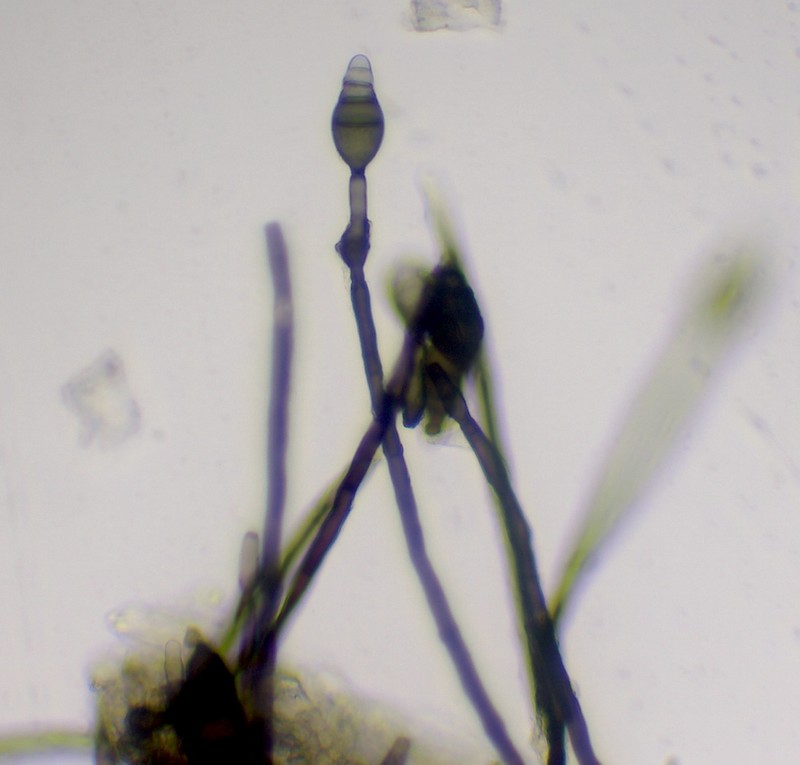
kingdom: Fungi
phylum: Ascomycota
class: Dothideomycetes
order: Pleosporales
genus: Sporidesmium
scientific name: Sporidesmium altum
